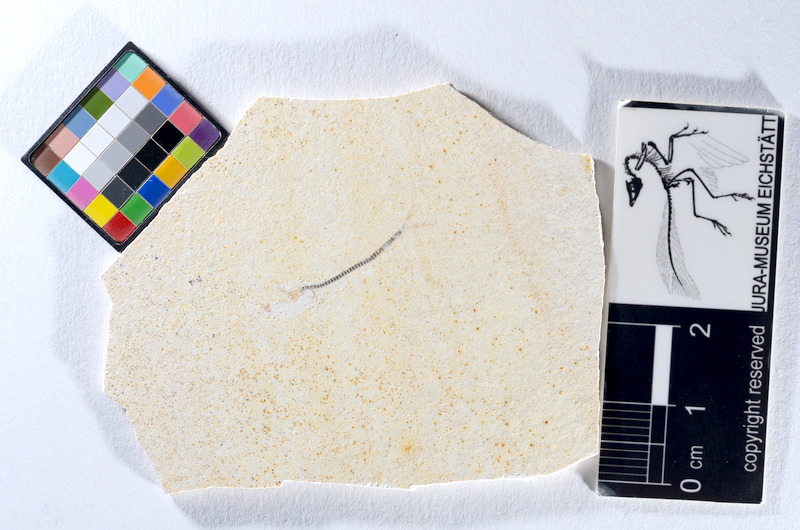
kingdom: Animalia
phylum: Chordata
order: Salmoniformes
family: Orthogonikleithridae
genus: Orthogonikleithrus
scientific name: Orthogonikleithrus hoelli
